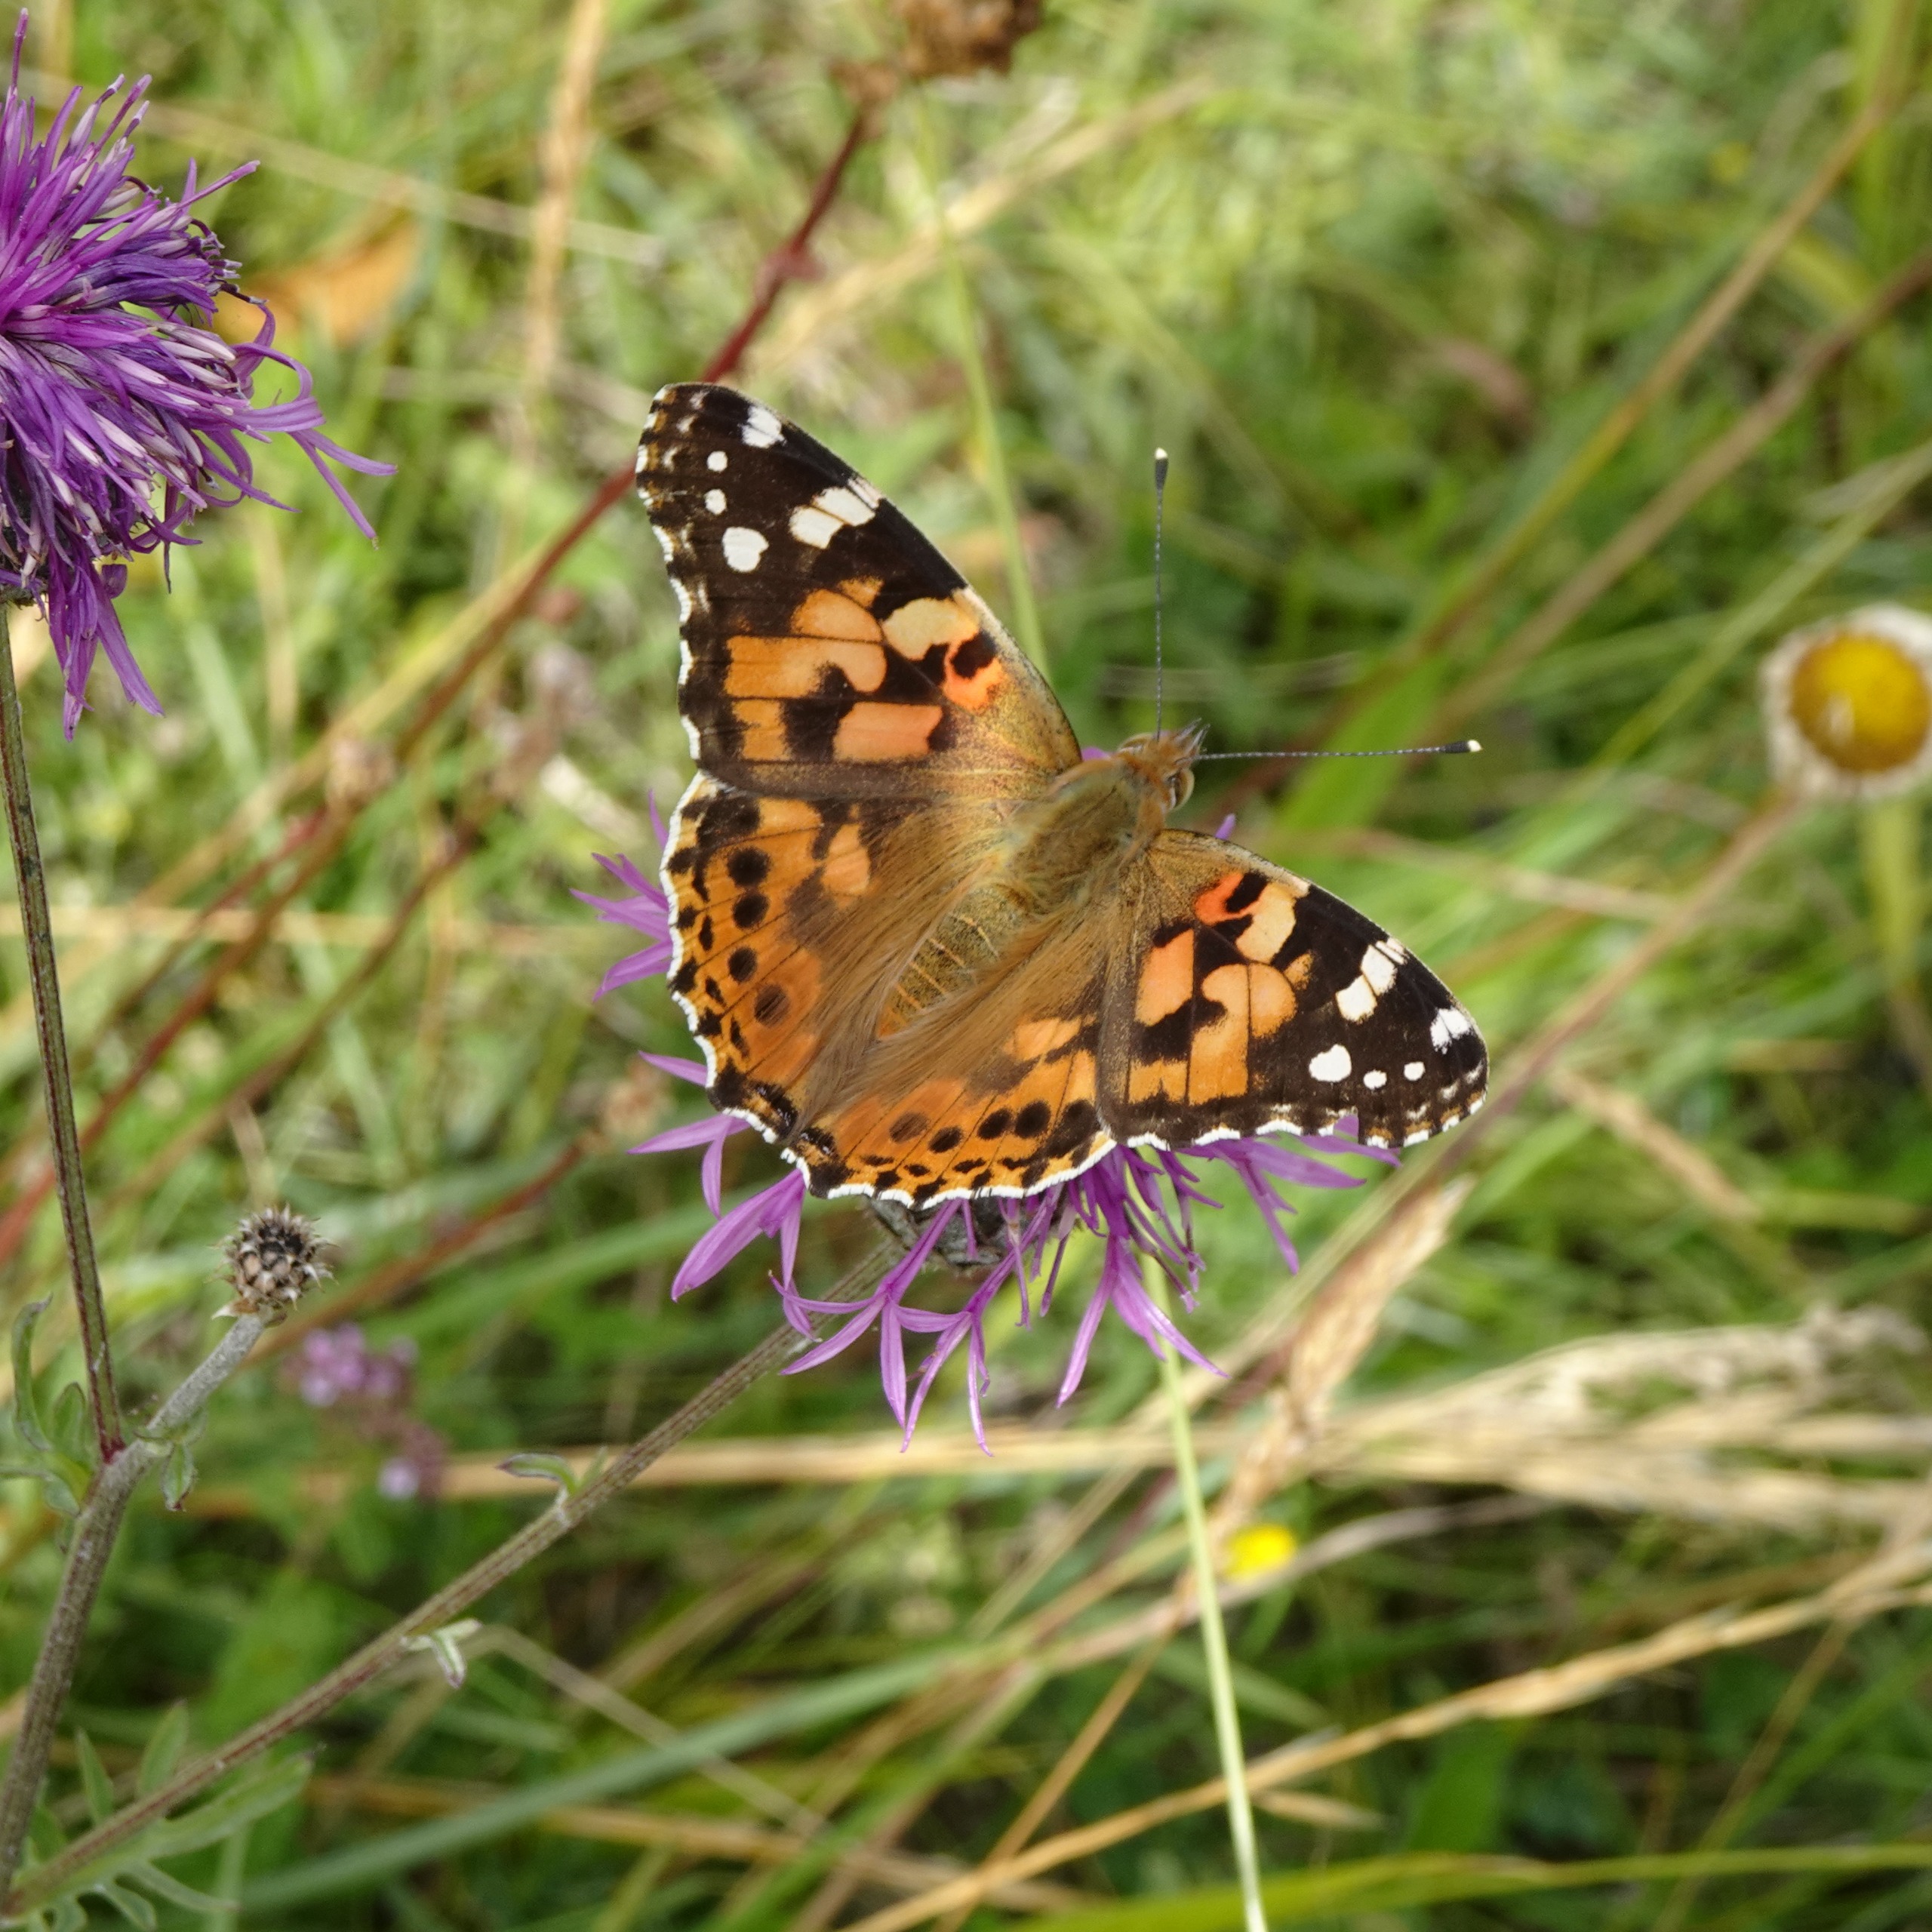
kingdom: Animalia
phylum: Arthropoda
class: Insecta
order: Lepidoptera
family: Nymphalidae
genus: Vanessa
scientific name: Vanessa cardui
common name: Tidselsommerfugl
